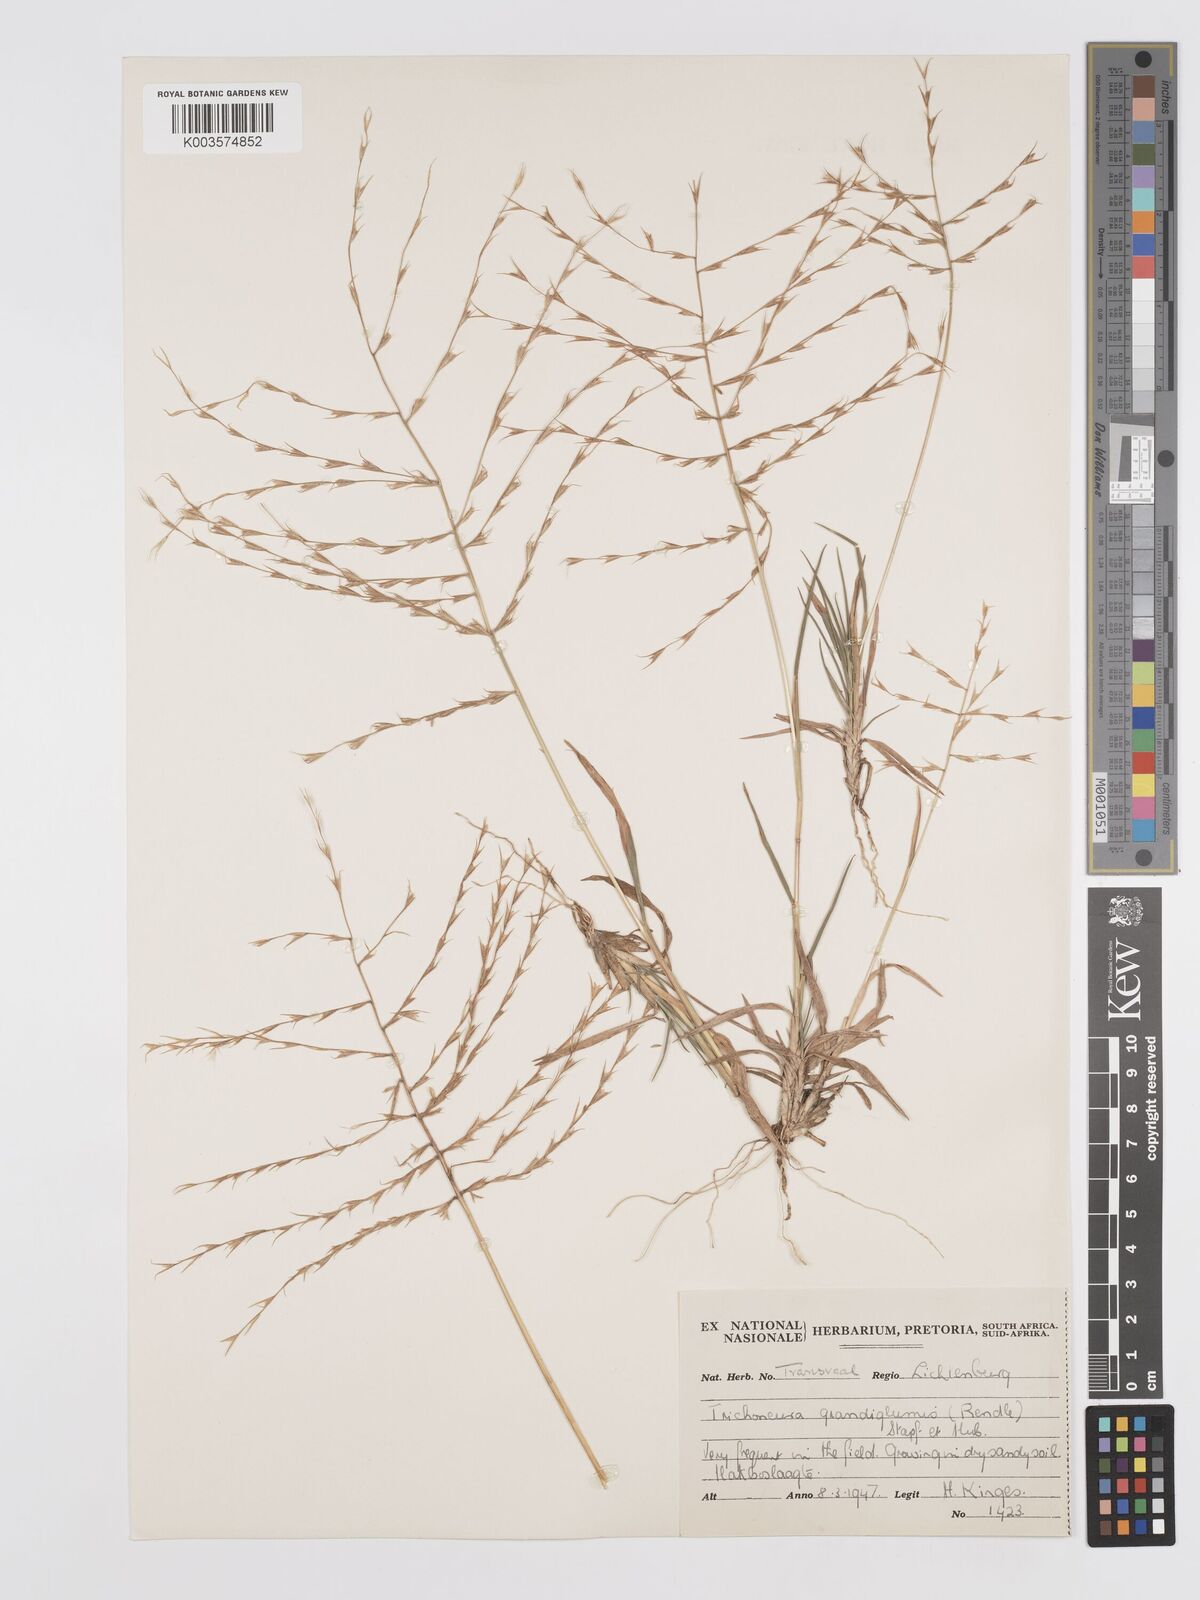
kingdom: Plantae
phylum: Tracheophyta
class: Liliopsida
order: Poales
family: Poaceae
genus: Trichoneura
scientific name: Trichoneura grandiglumis
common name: Rolling grass
